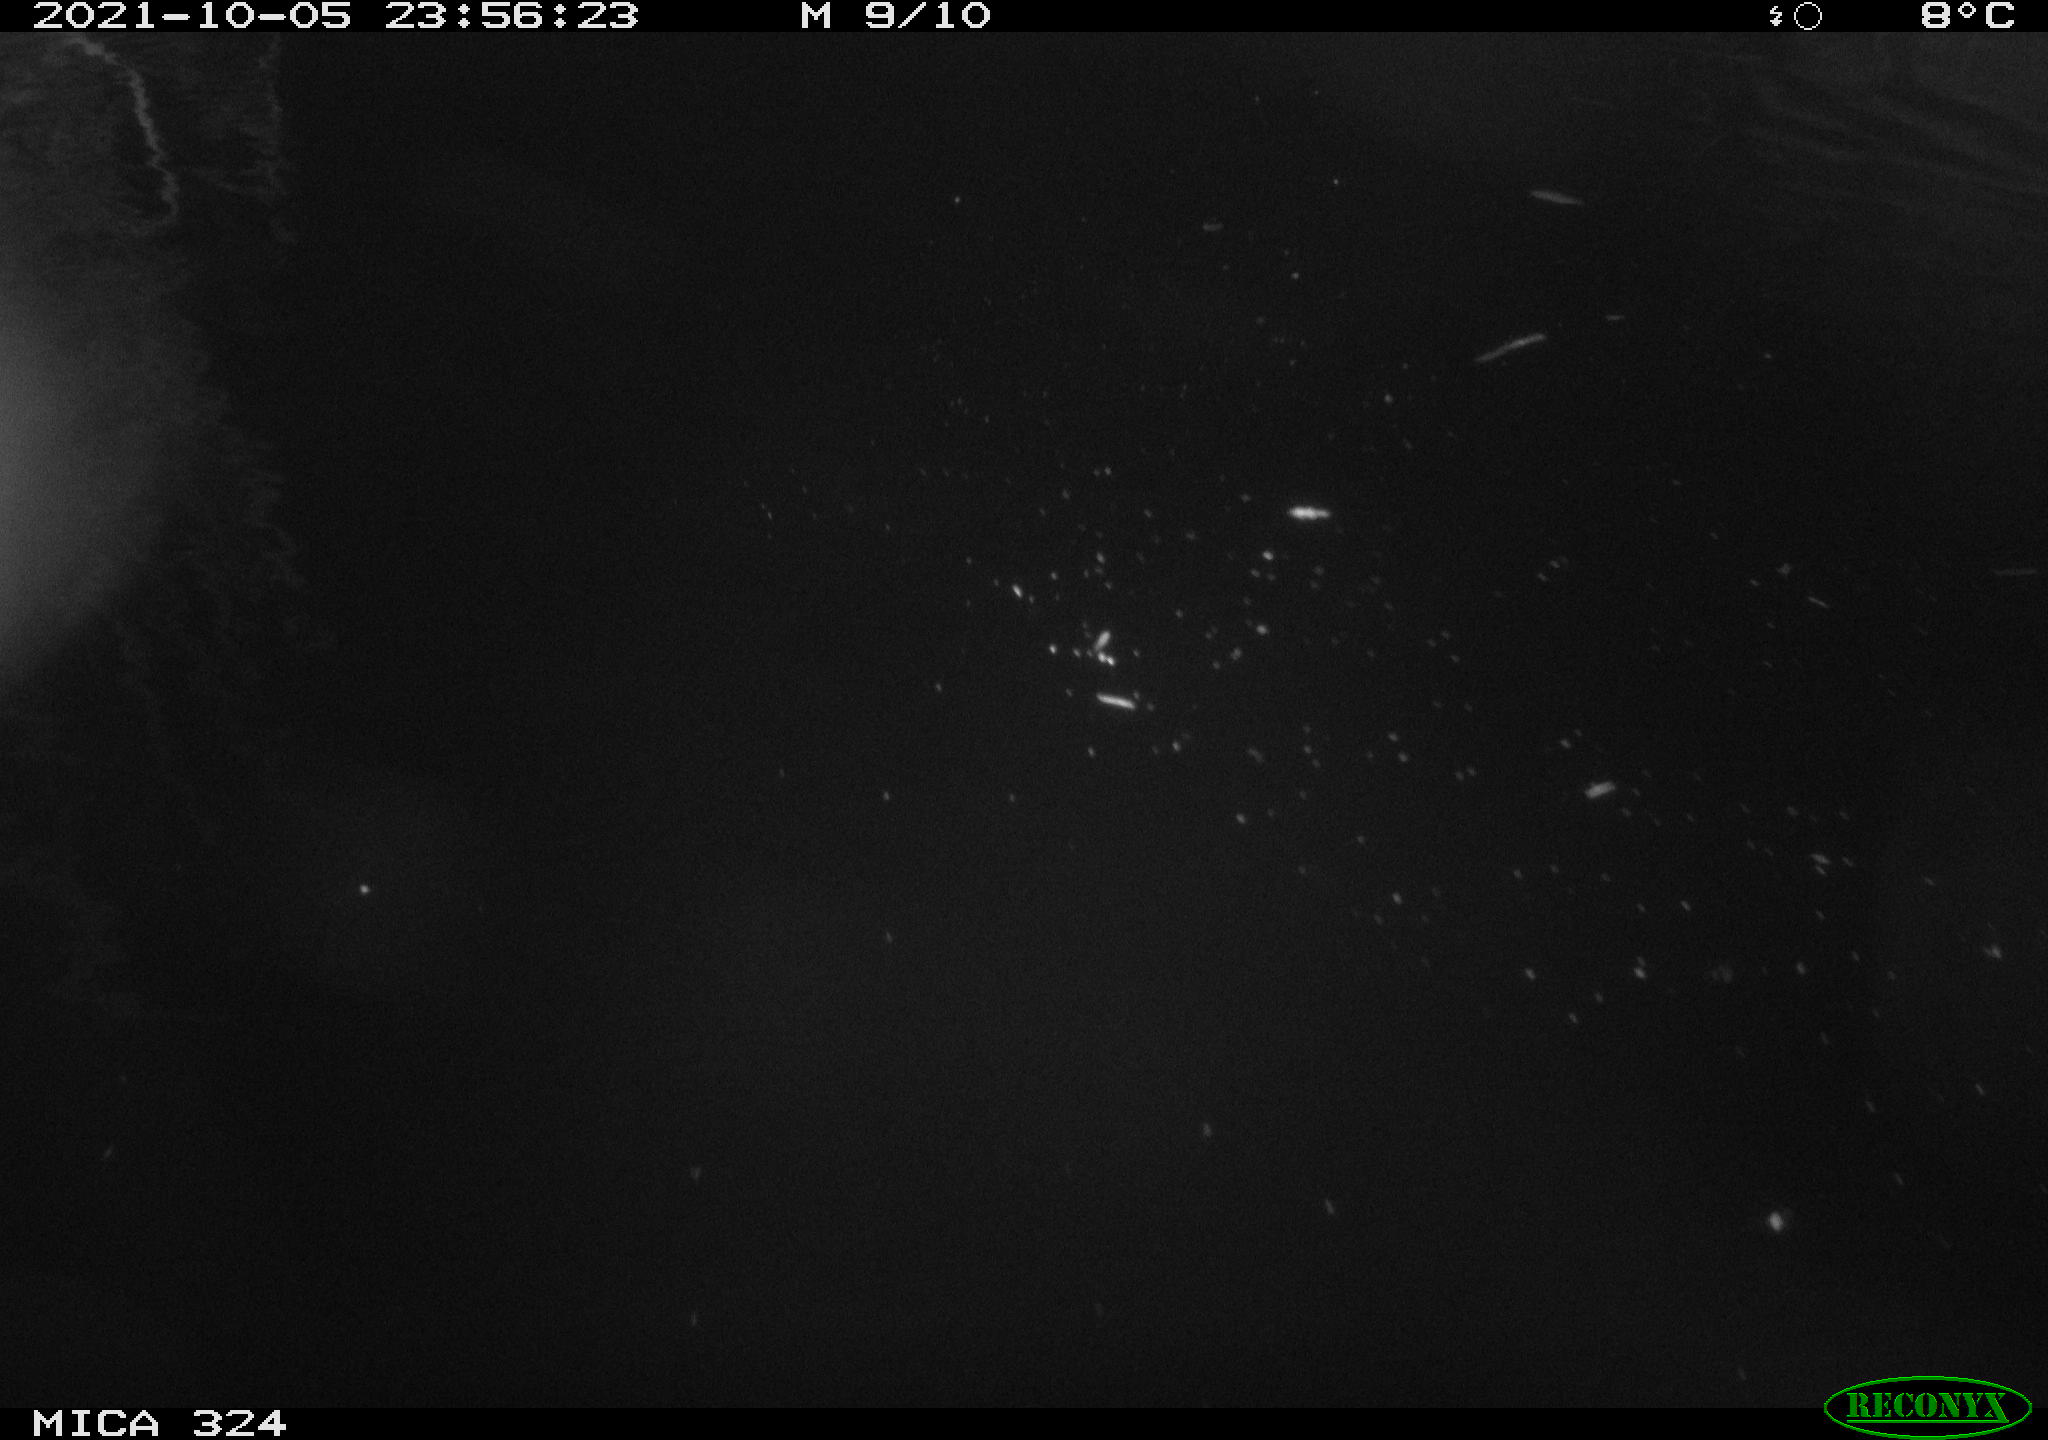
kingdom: Animalia
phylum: Chordata
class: Mammalia
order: Rodentia
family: Myocastoridae
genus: Myocastor
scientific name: Myocastor coypus
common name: Coypu
